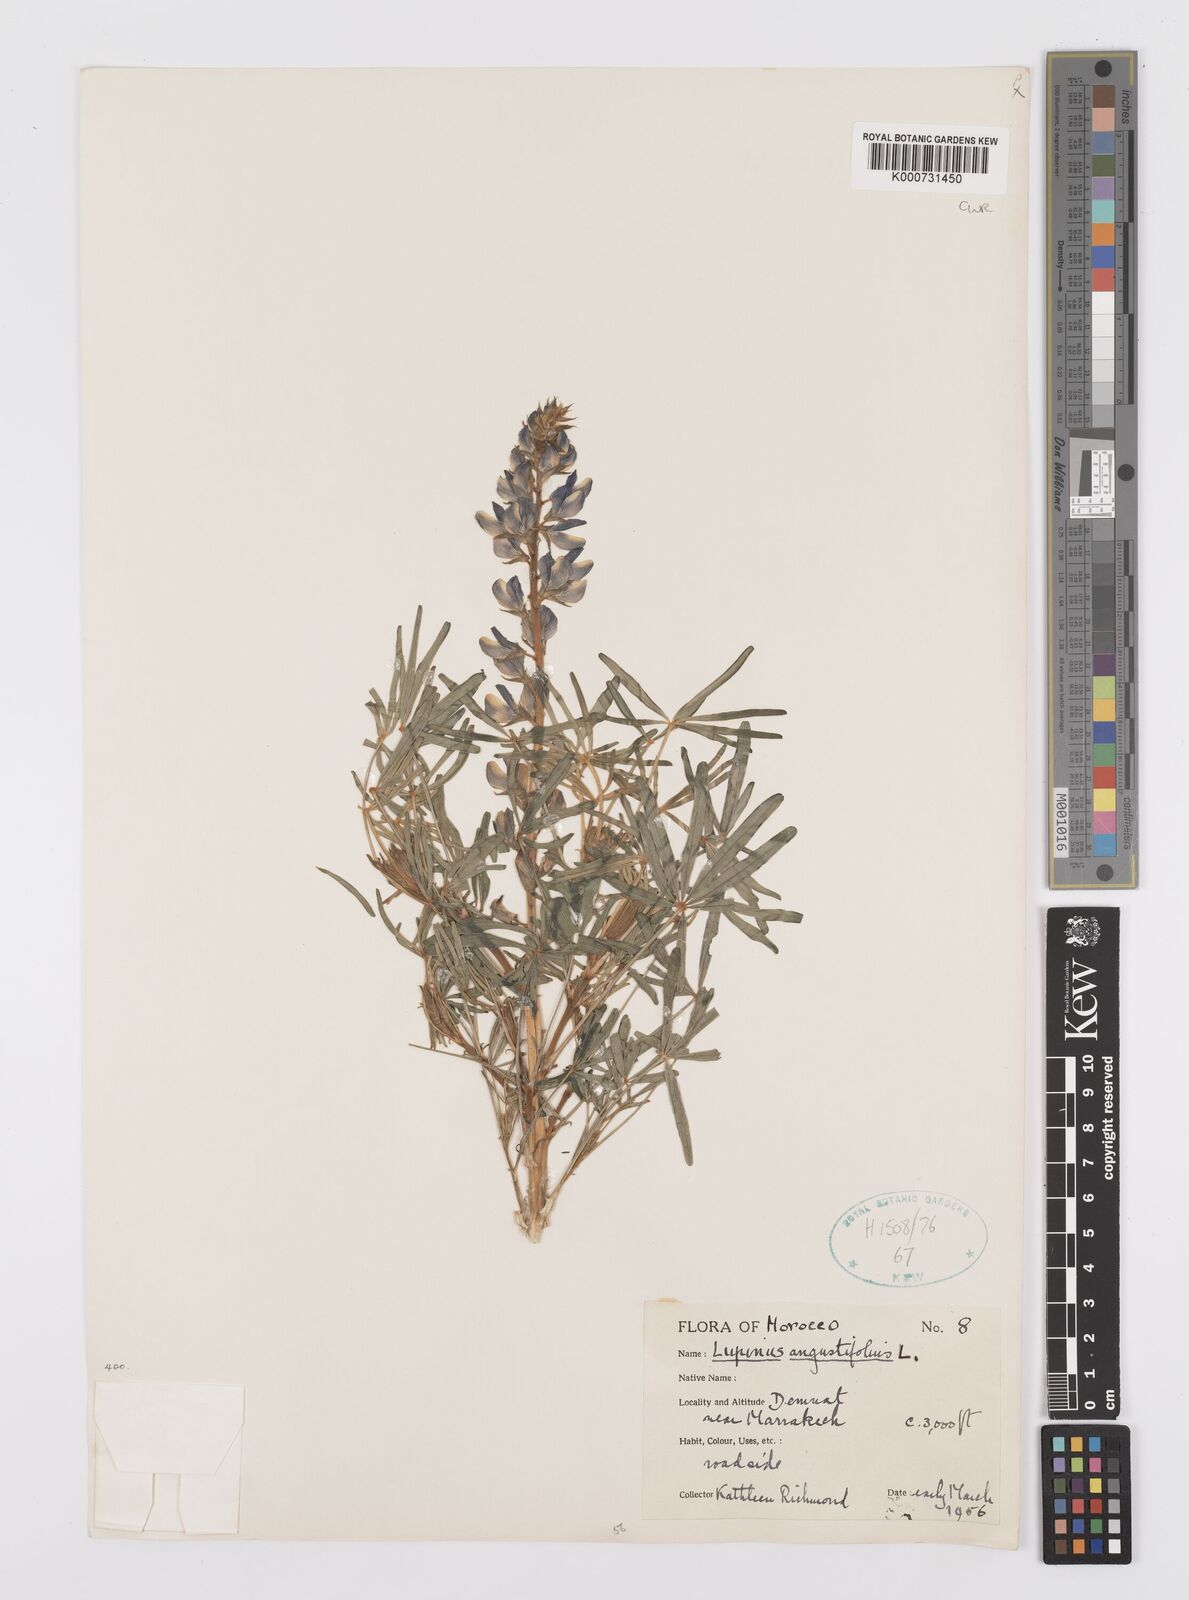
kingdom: Plantae
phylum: Tracheophyta
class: Magnoliopsida
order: Fabales
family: Fabaceae
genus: Lupinus
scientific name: Lupinus angustifolius
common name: Narrow-leaved lupin
